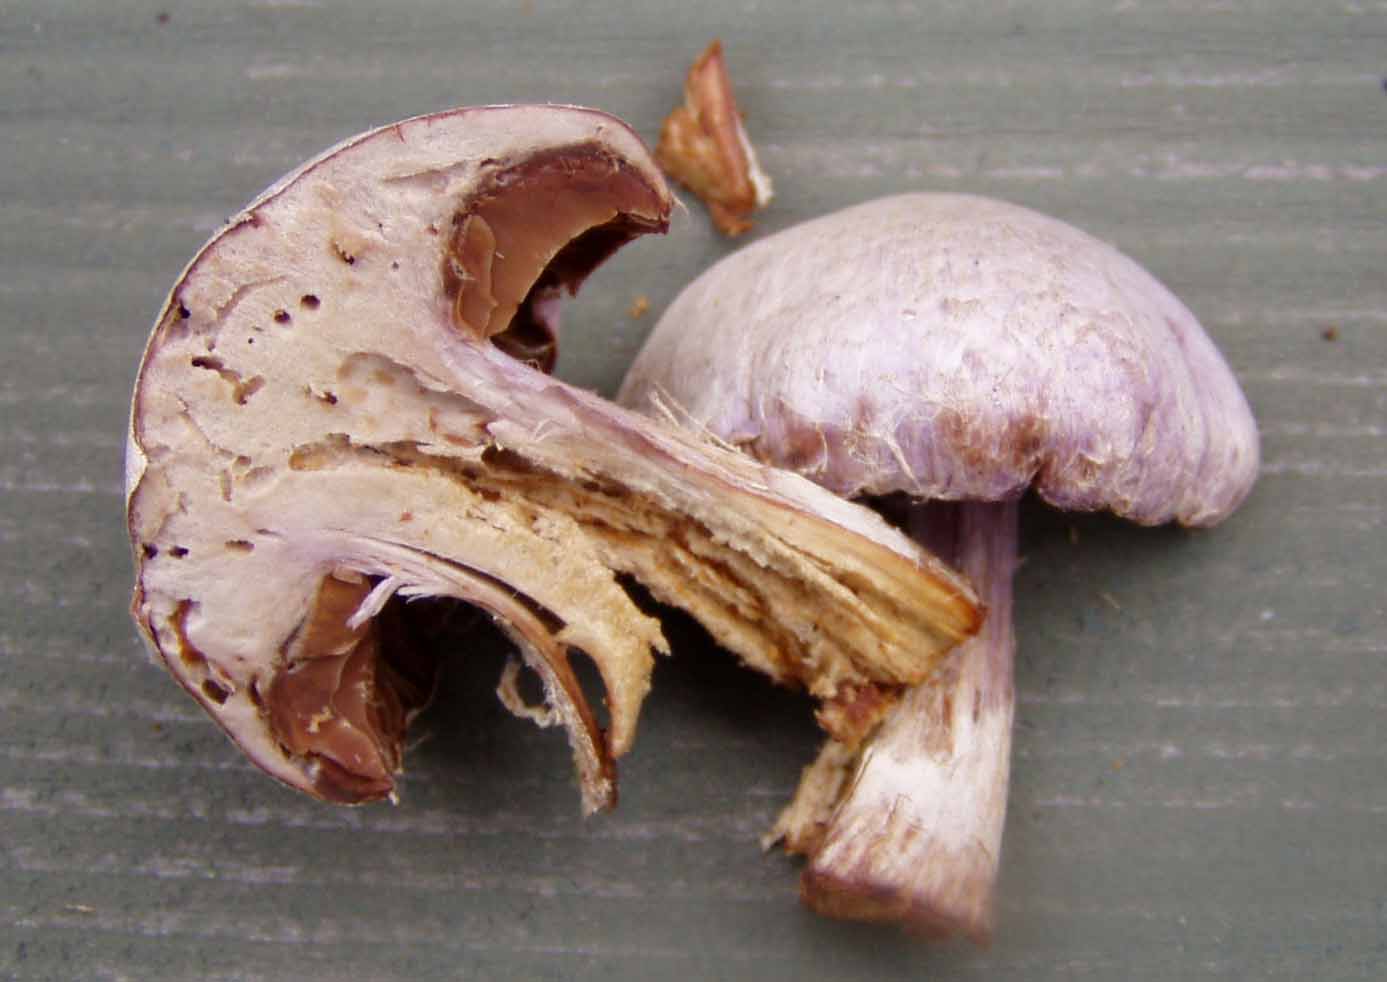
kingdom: Fungi
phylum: Basidiomycota
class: Agaricomycetes
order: Agaricales
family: Cortinariaceae
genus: Cortinarius
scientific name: Cortinarius traganus
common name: safrankødet slørhat
